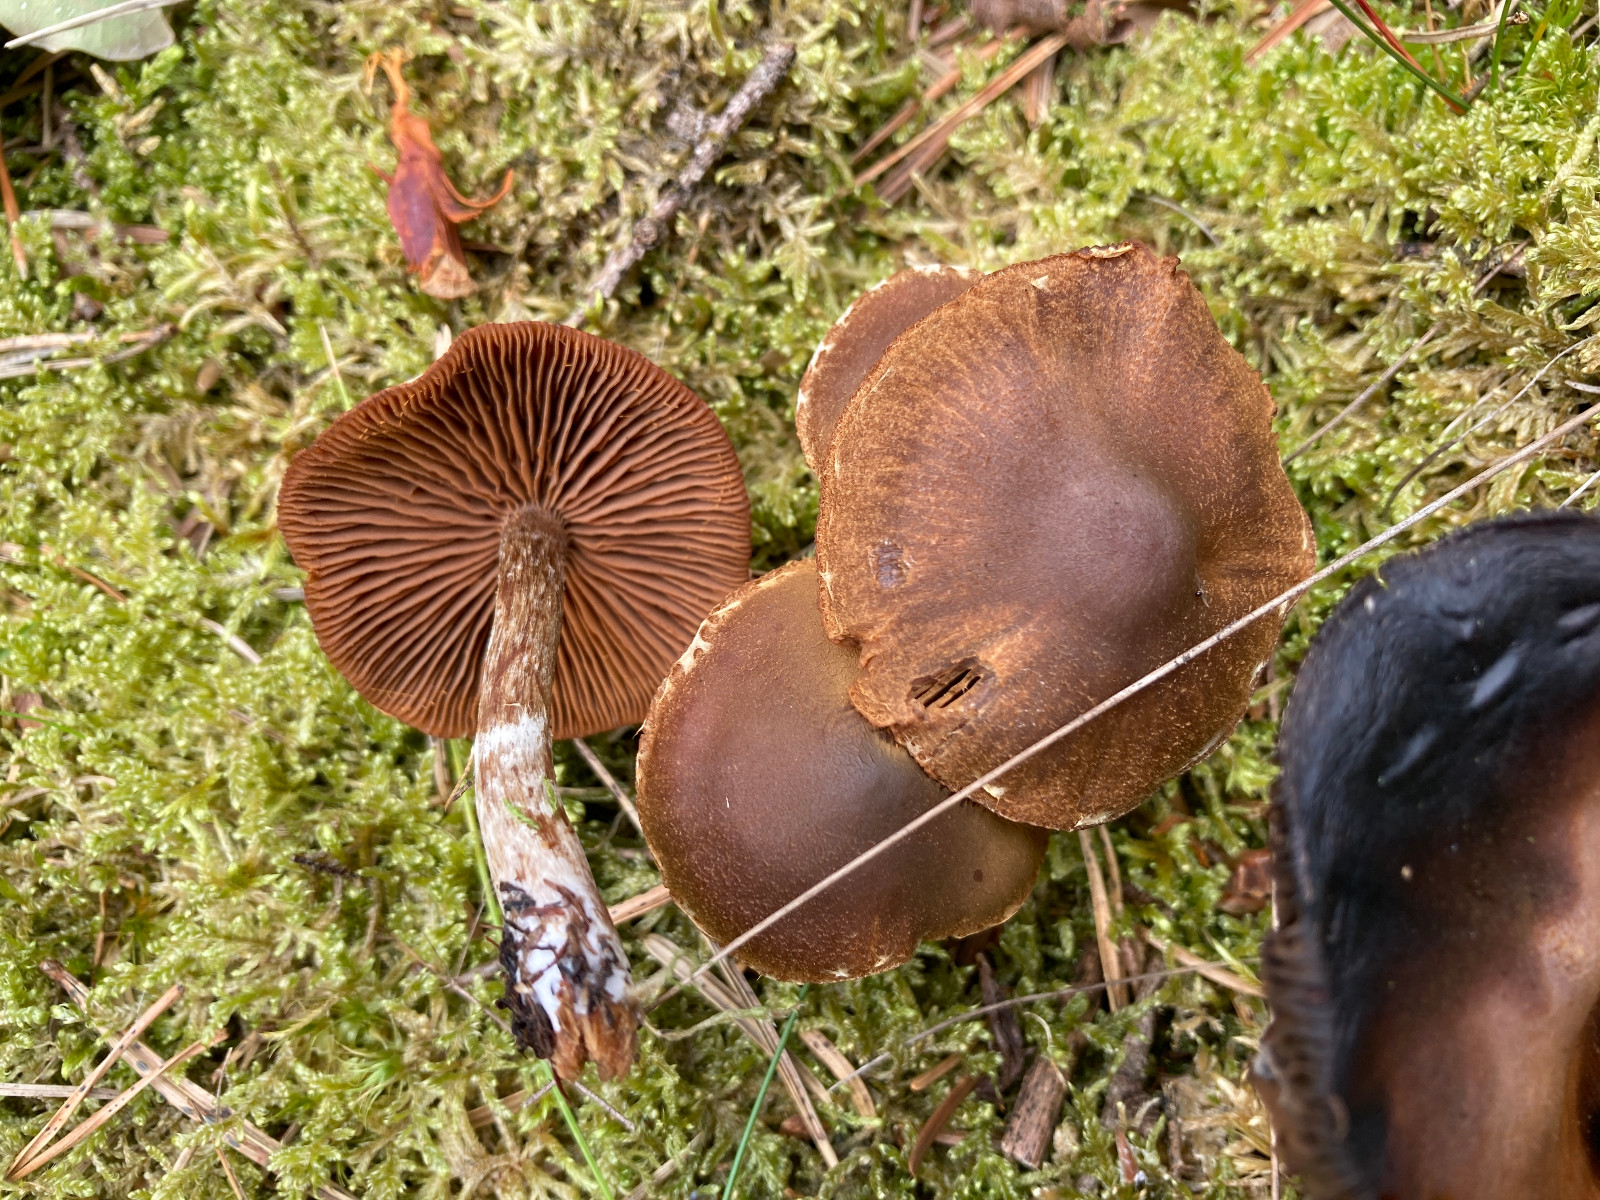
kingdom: Fungi
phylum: Basidiomycota
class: Agaricomycetes
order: Agaricales
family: Cortinariaceae
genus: Cortinarius
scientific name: Cortinarius
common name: pelargonie-slørhat
